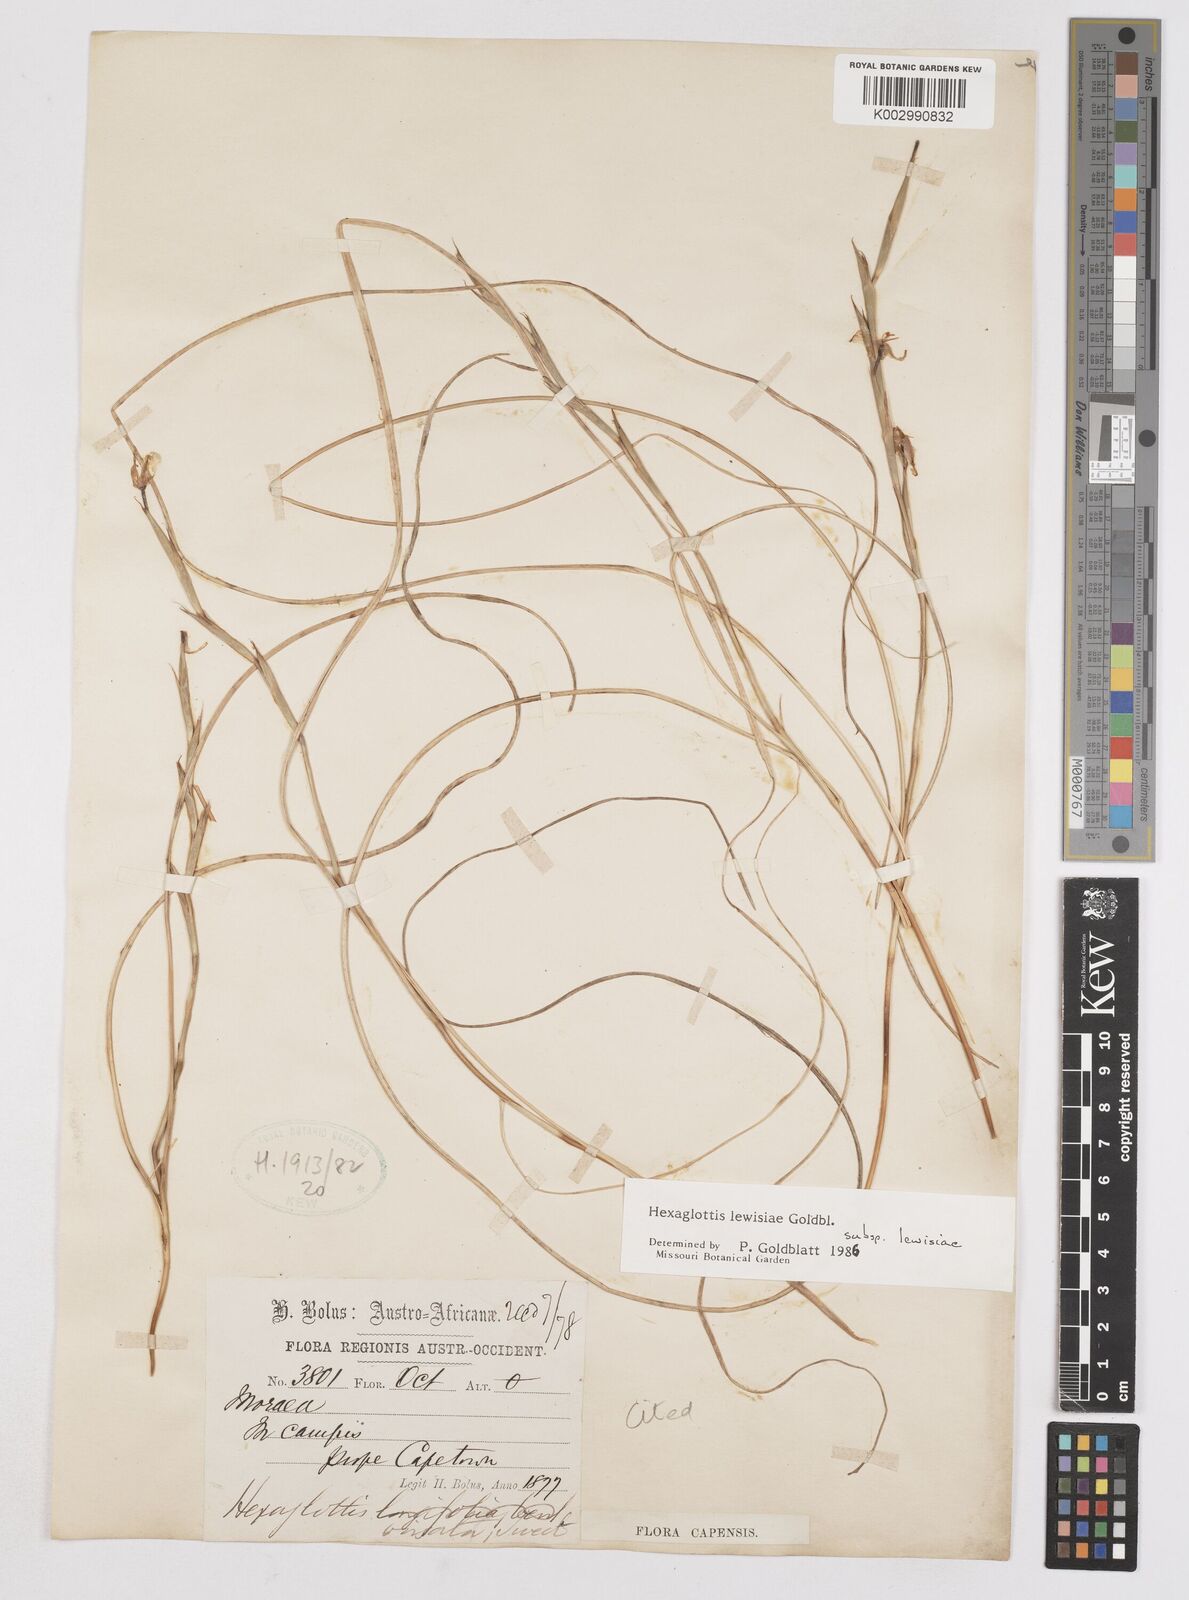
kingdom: Plantae
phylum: Tracheophyta
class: Liliopsida
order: Asparagales
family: Iridaceae
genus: Moraea
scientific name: Moraea lewisiae
